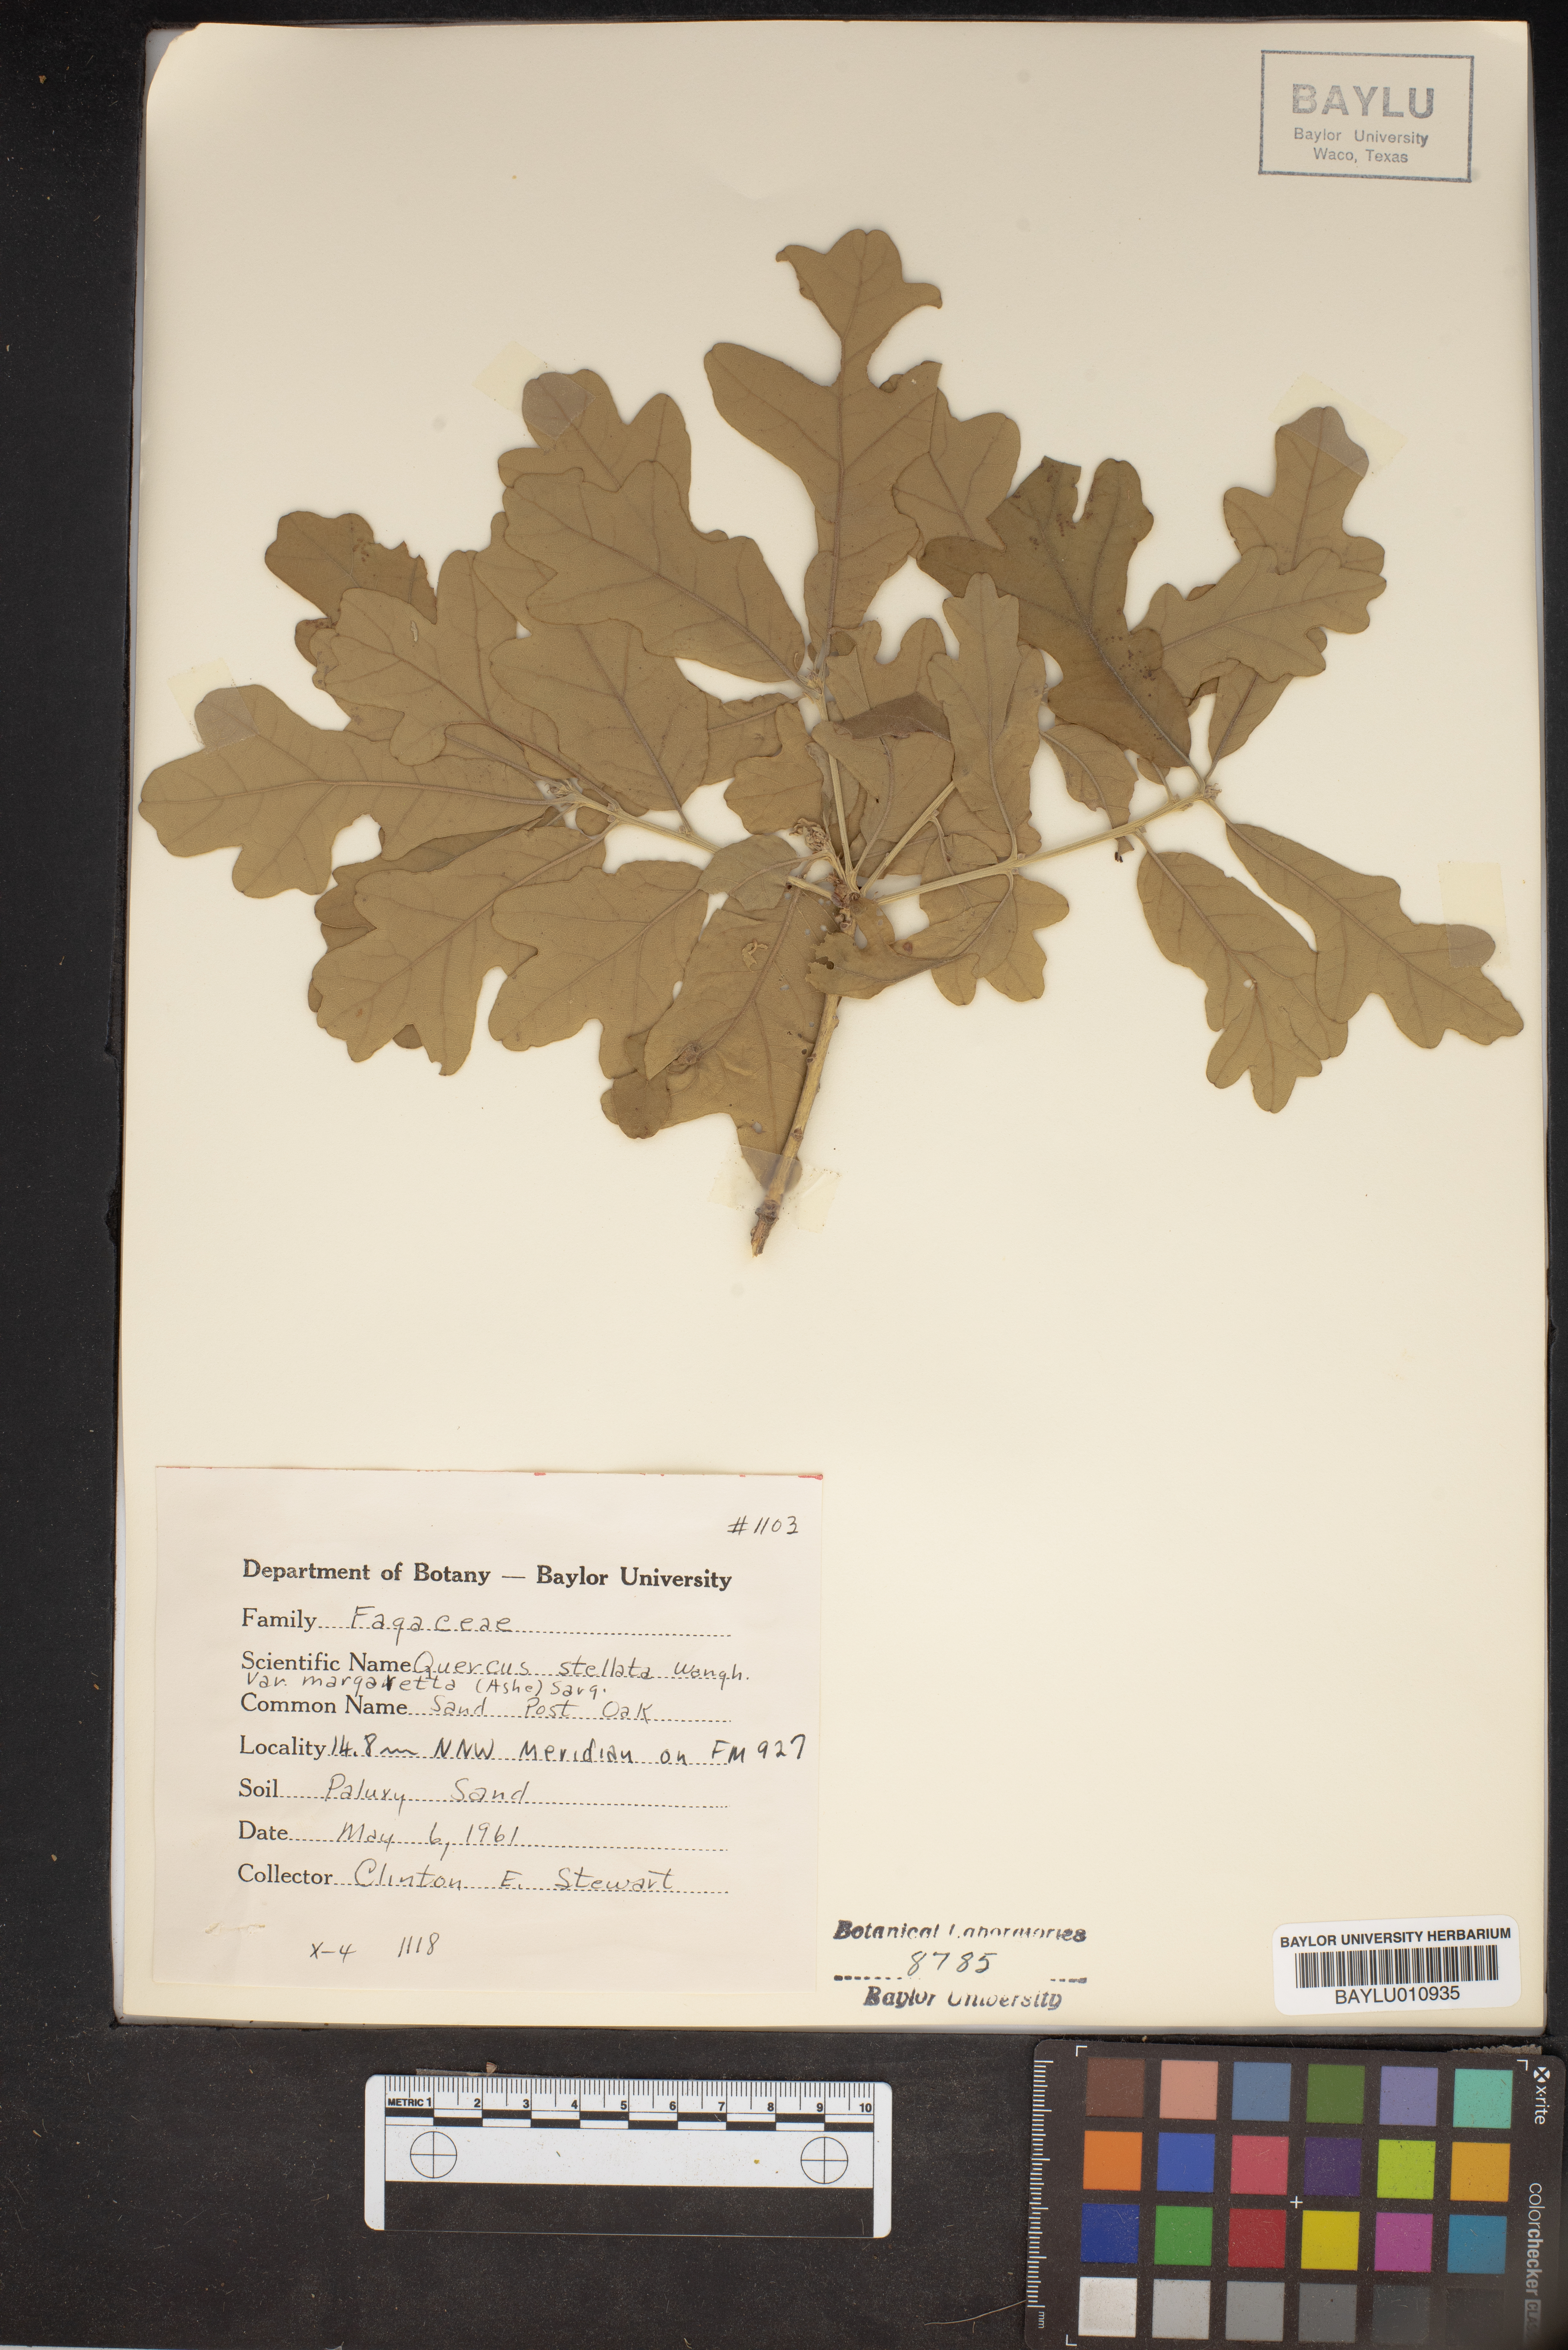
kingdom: Plantae
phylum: Tracheophyta
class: Magnoliopsida
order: Fagales
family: Fagaceae
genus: Quercus
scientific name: Quercus stellata
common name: Post oak
